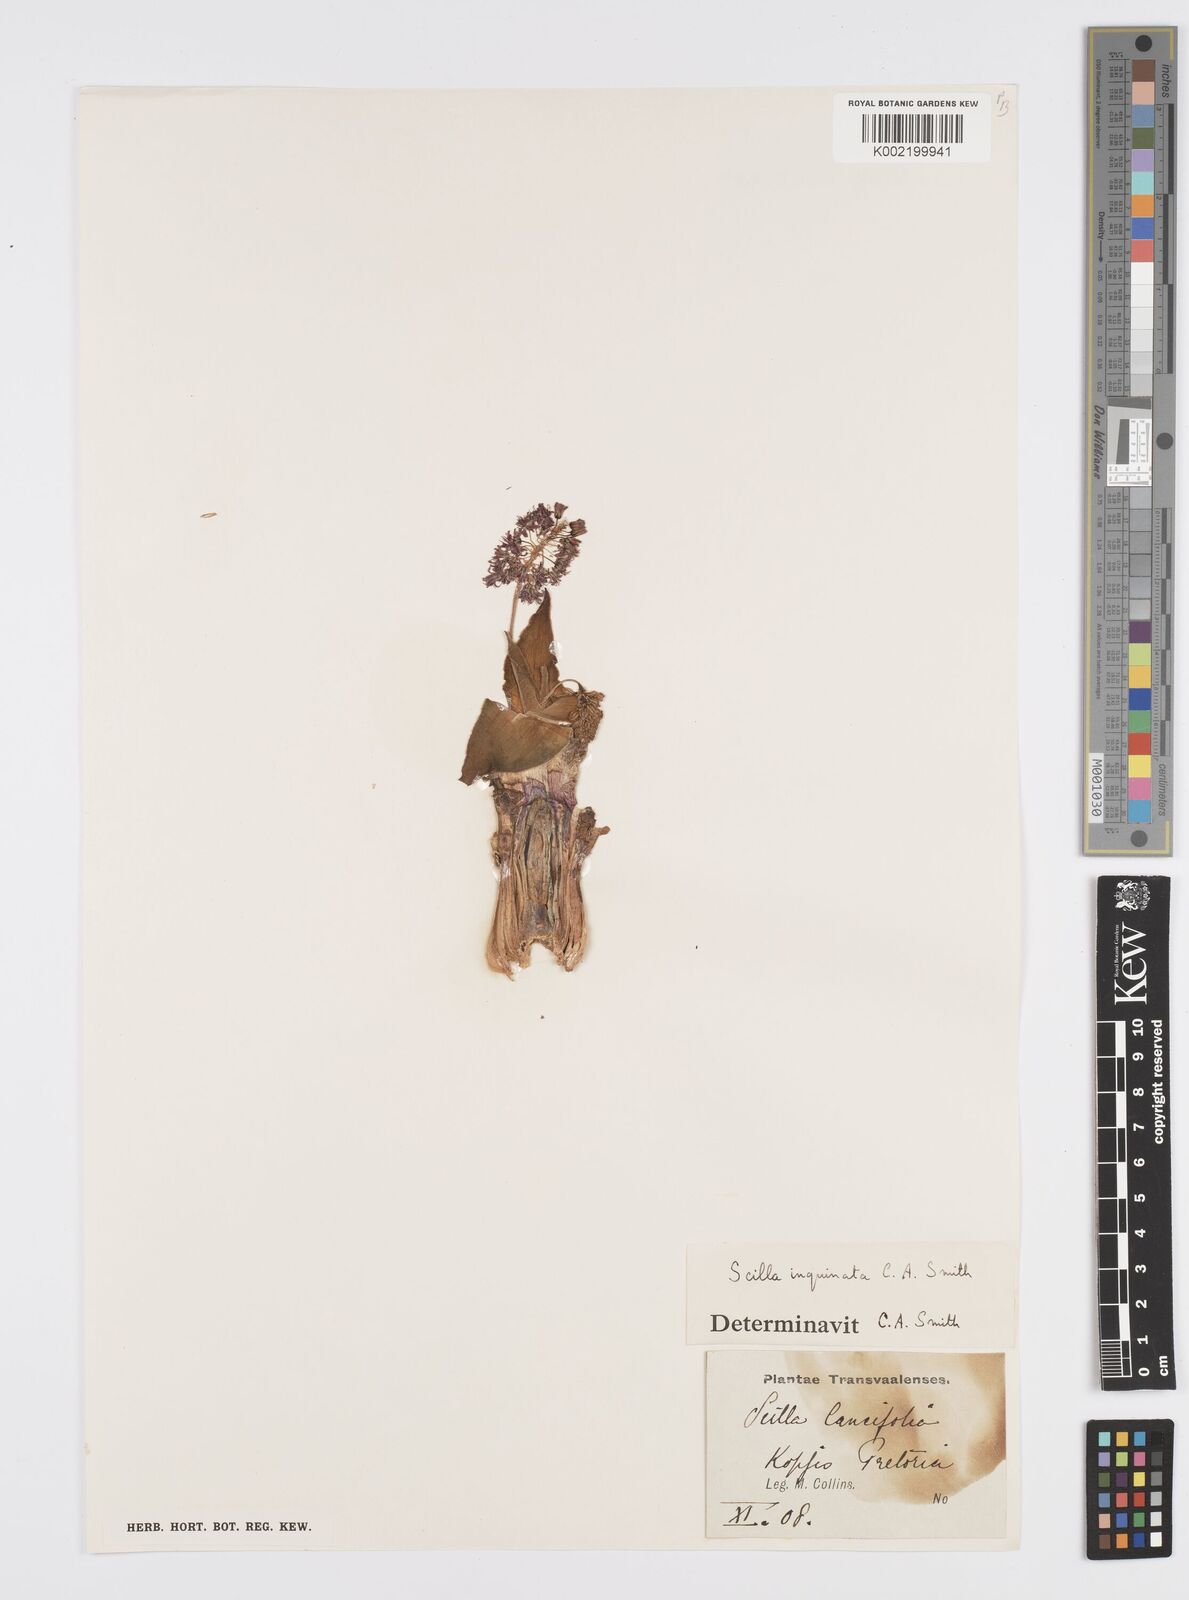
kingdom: Plantae
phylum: Tracheophyta
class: Liliopsida
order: Asparagales
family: Asparagaceae
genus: Ledebouria
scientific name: Ledebouria inquinata
